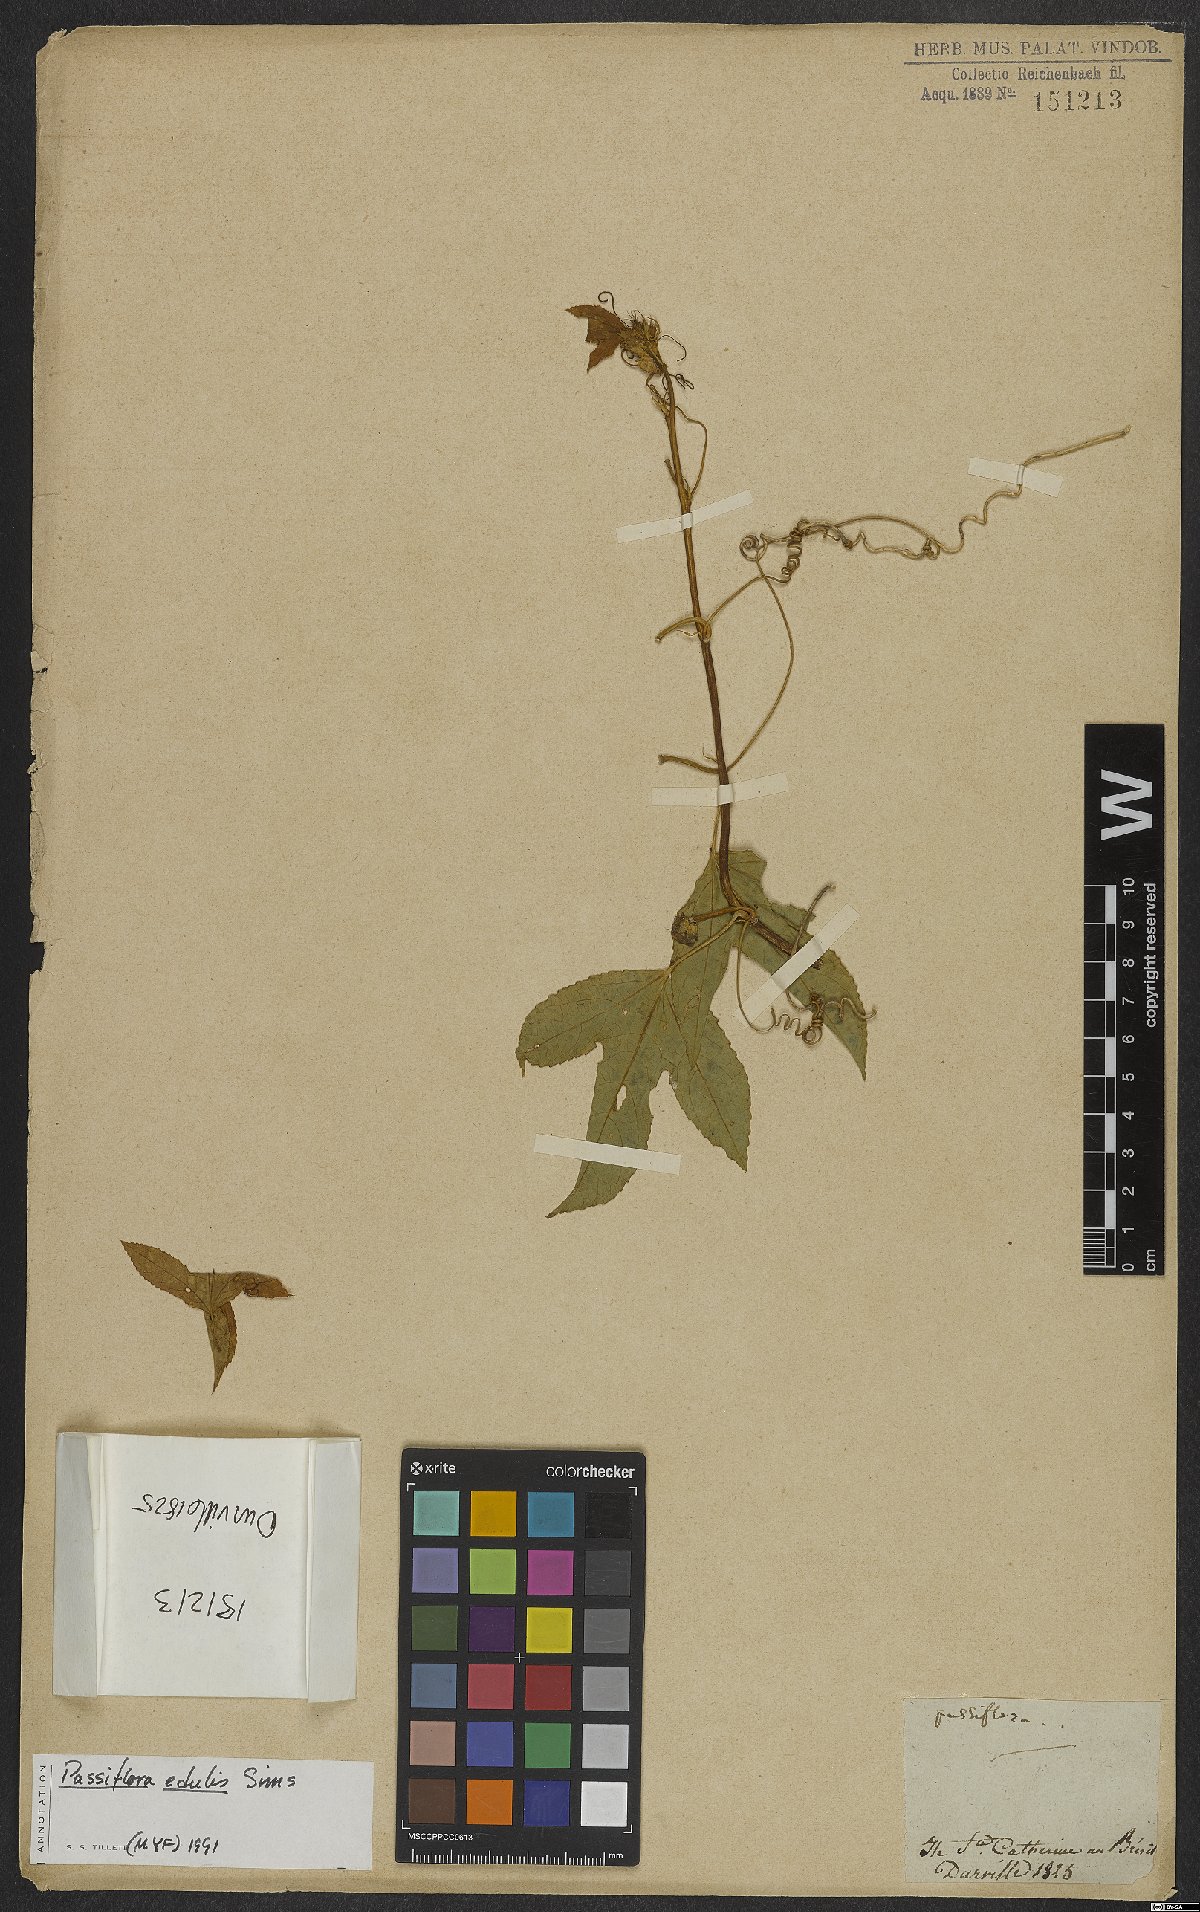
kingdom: Plantae
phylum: Tracheophyta
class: Magnoliopsida
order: Malpighiales
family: Passifloraceae
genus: Passiflora
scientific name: Passiflora edulis
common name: Purple granadilla
